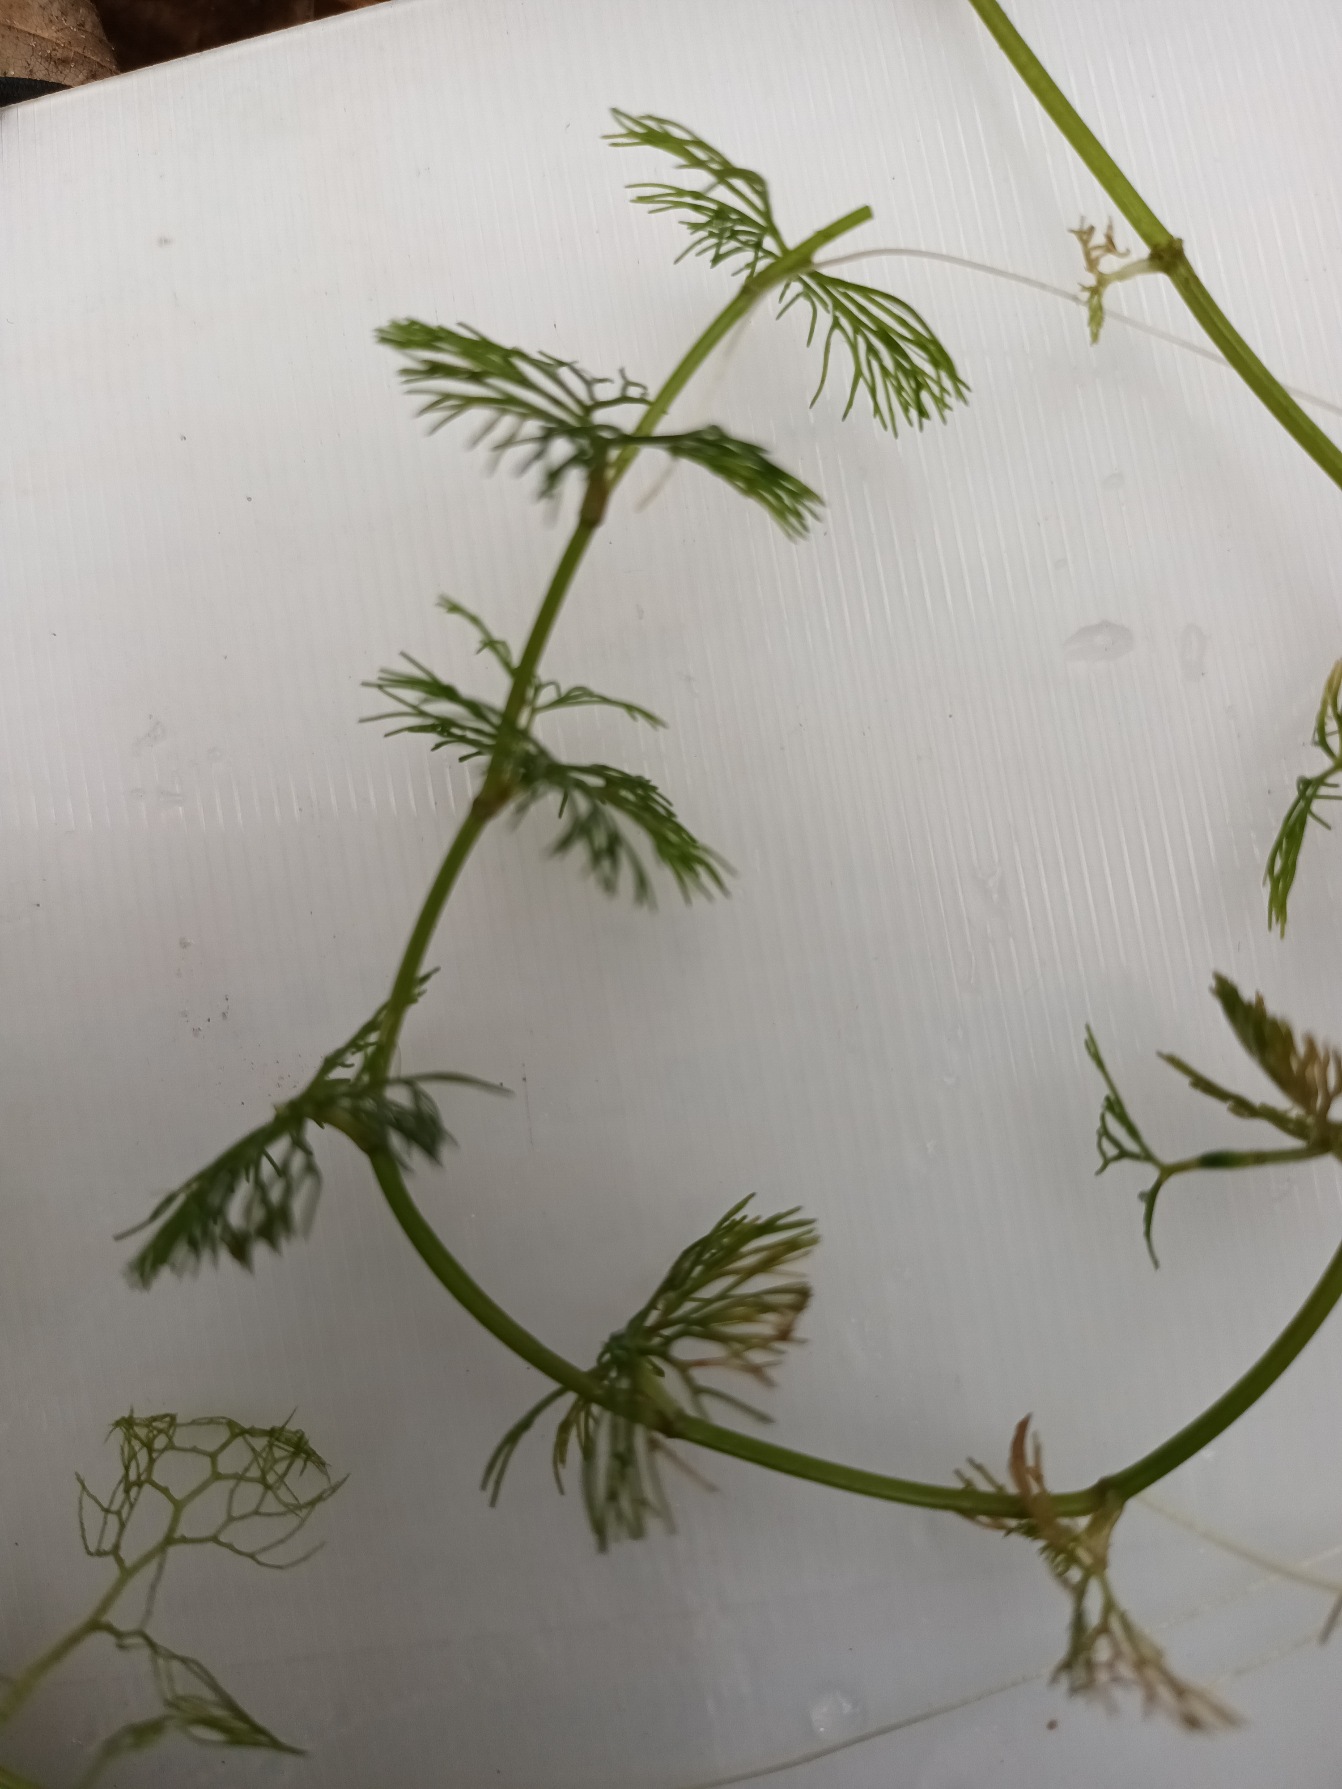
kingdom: Plantae
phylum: Tracheophyta
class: Magnoliopsida
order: Ranunculales
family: Ranunculaceae
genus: Ranunculus
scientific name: Ranunculus circinatus
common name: Kredsbladet vandranunkel
